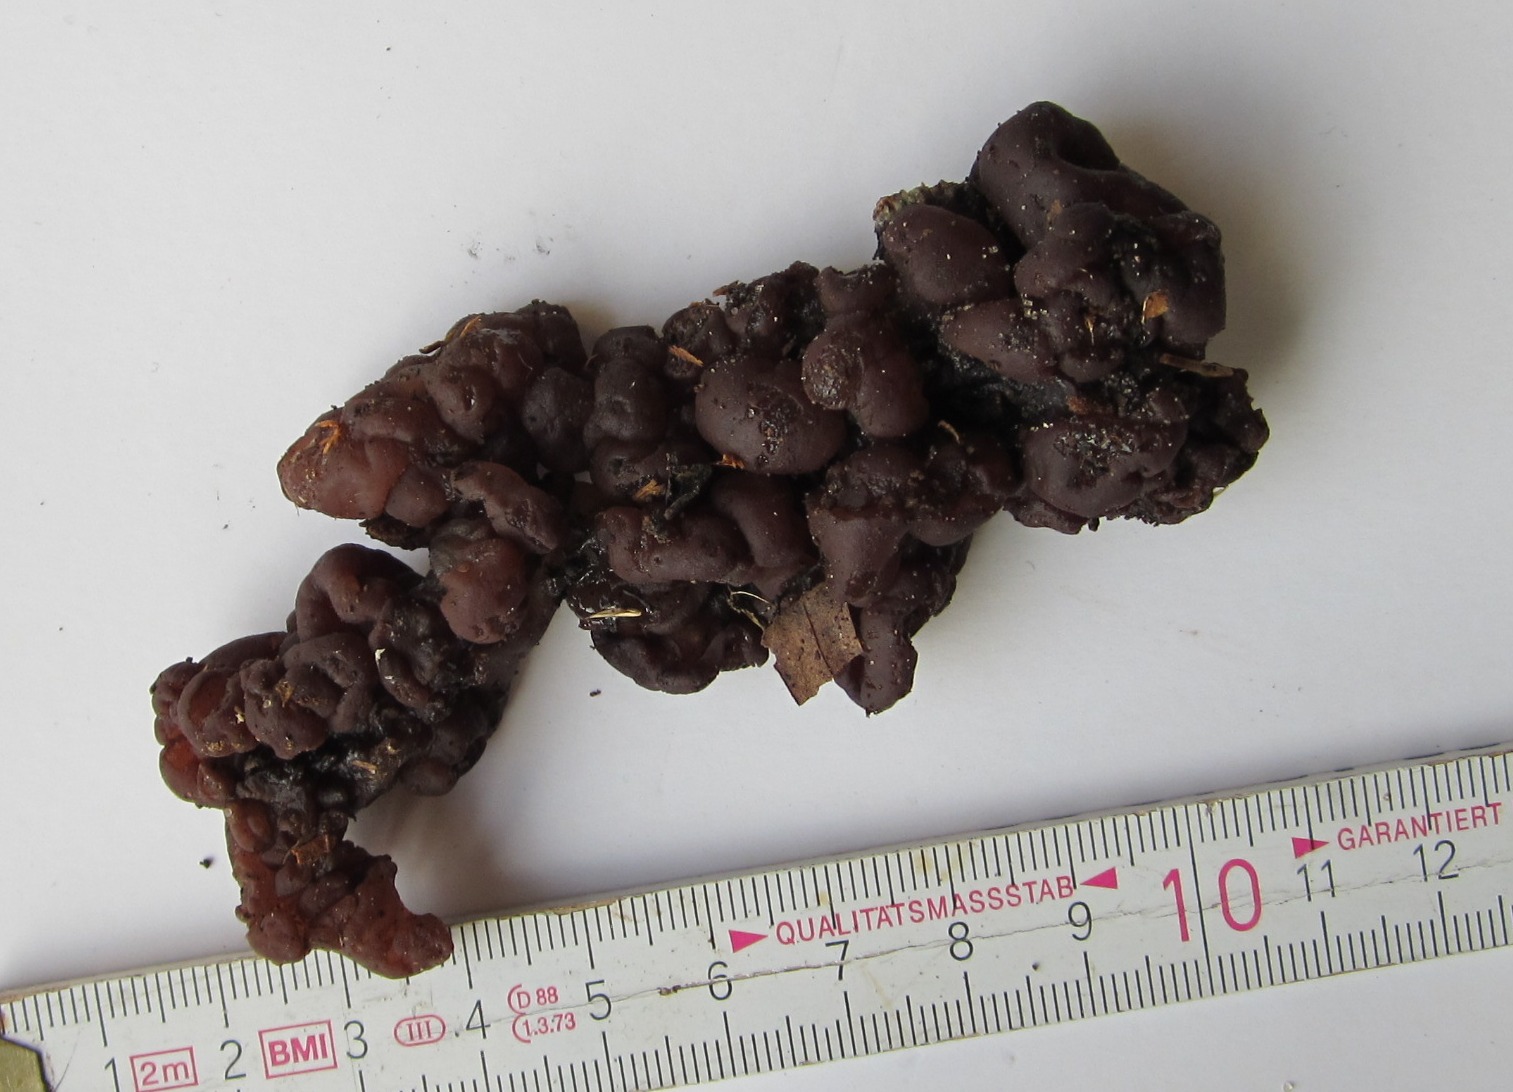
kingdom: Fungi
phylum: Basidiomycota
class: Agaricomycetes
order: Auriculariales
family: Auriculariaceae
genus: Exidia
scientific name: Exidia nigricans
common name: almindelig bævretop
